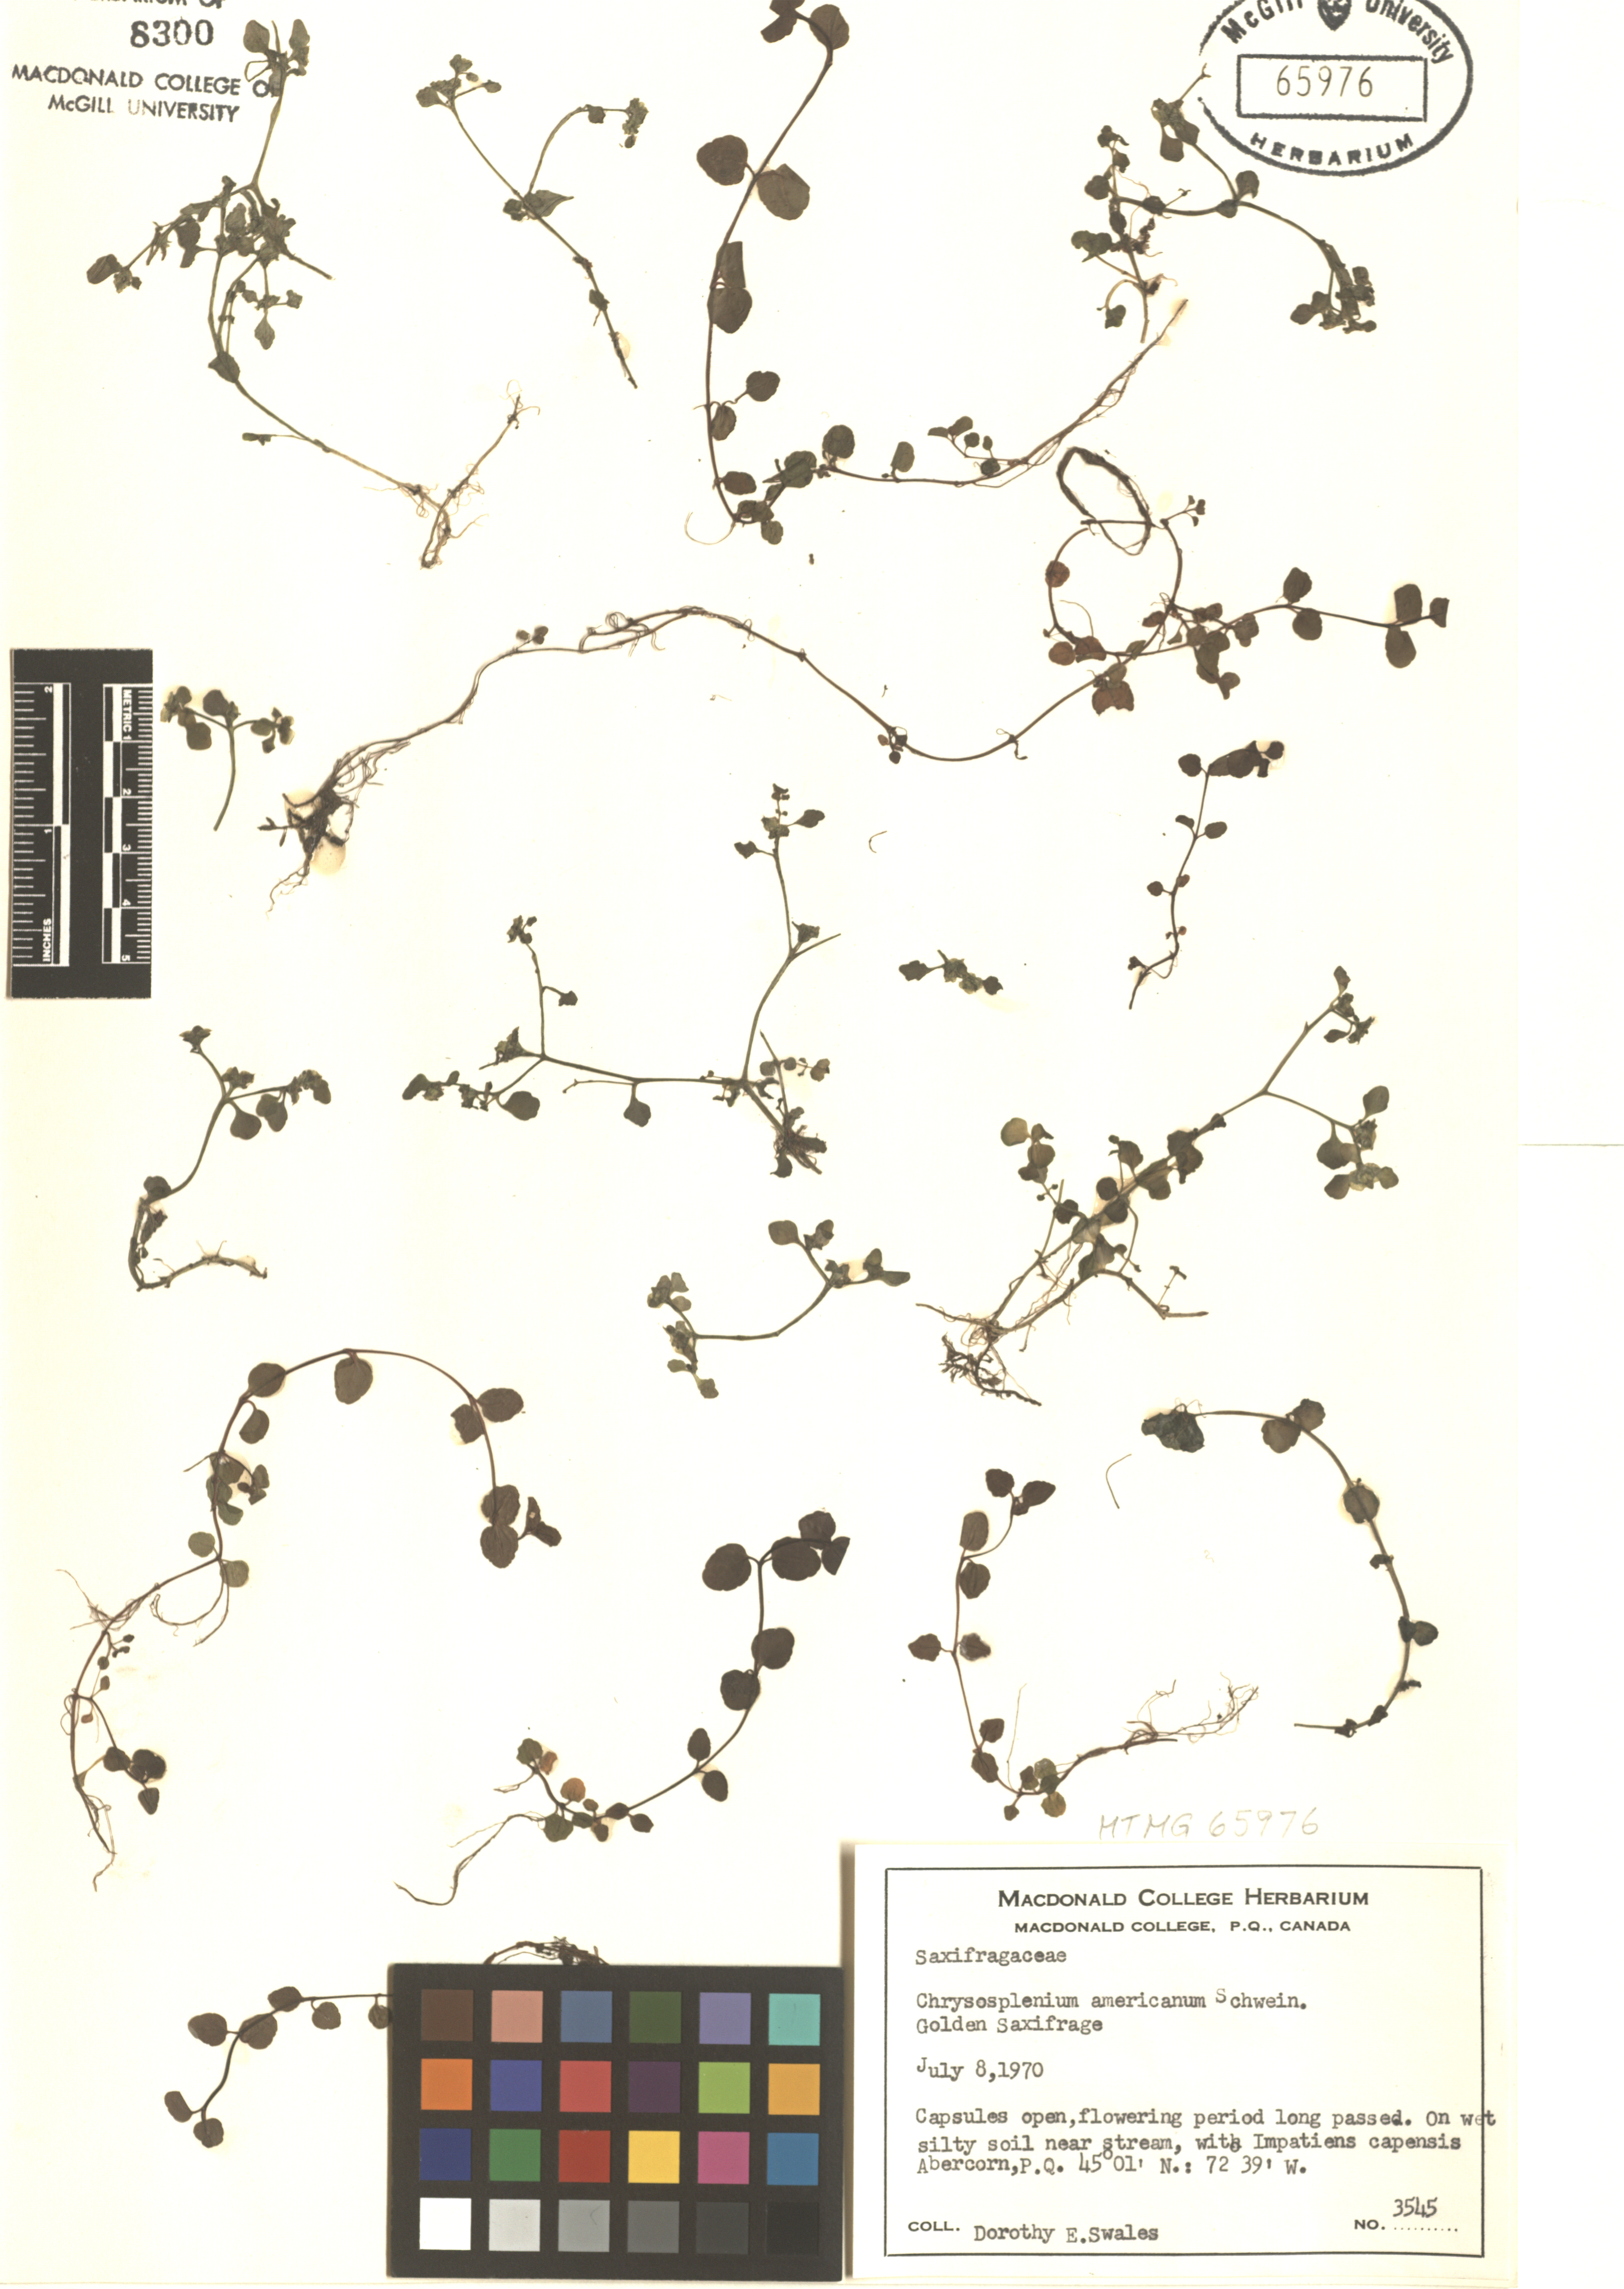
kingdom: Plantae
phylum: Tracheophyta
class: Magnoliopsida
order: Saxifragales
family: Saxifragaceae
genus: Chrysosplenium
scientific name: Chrysosplenium americanum
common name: American golden-saxifrage
